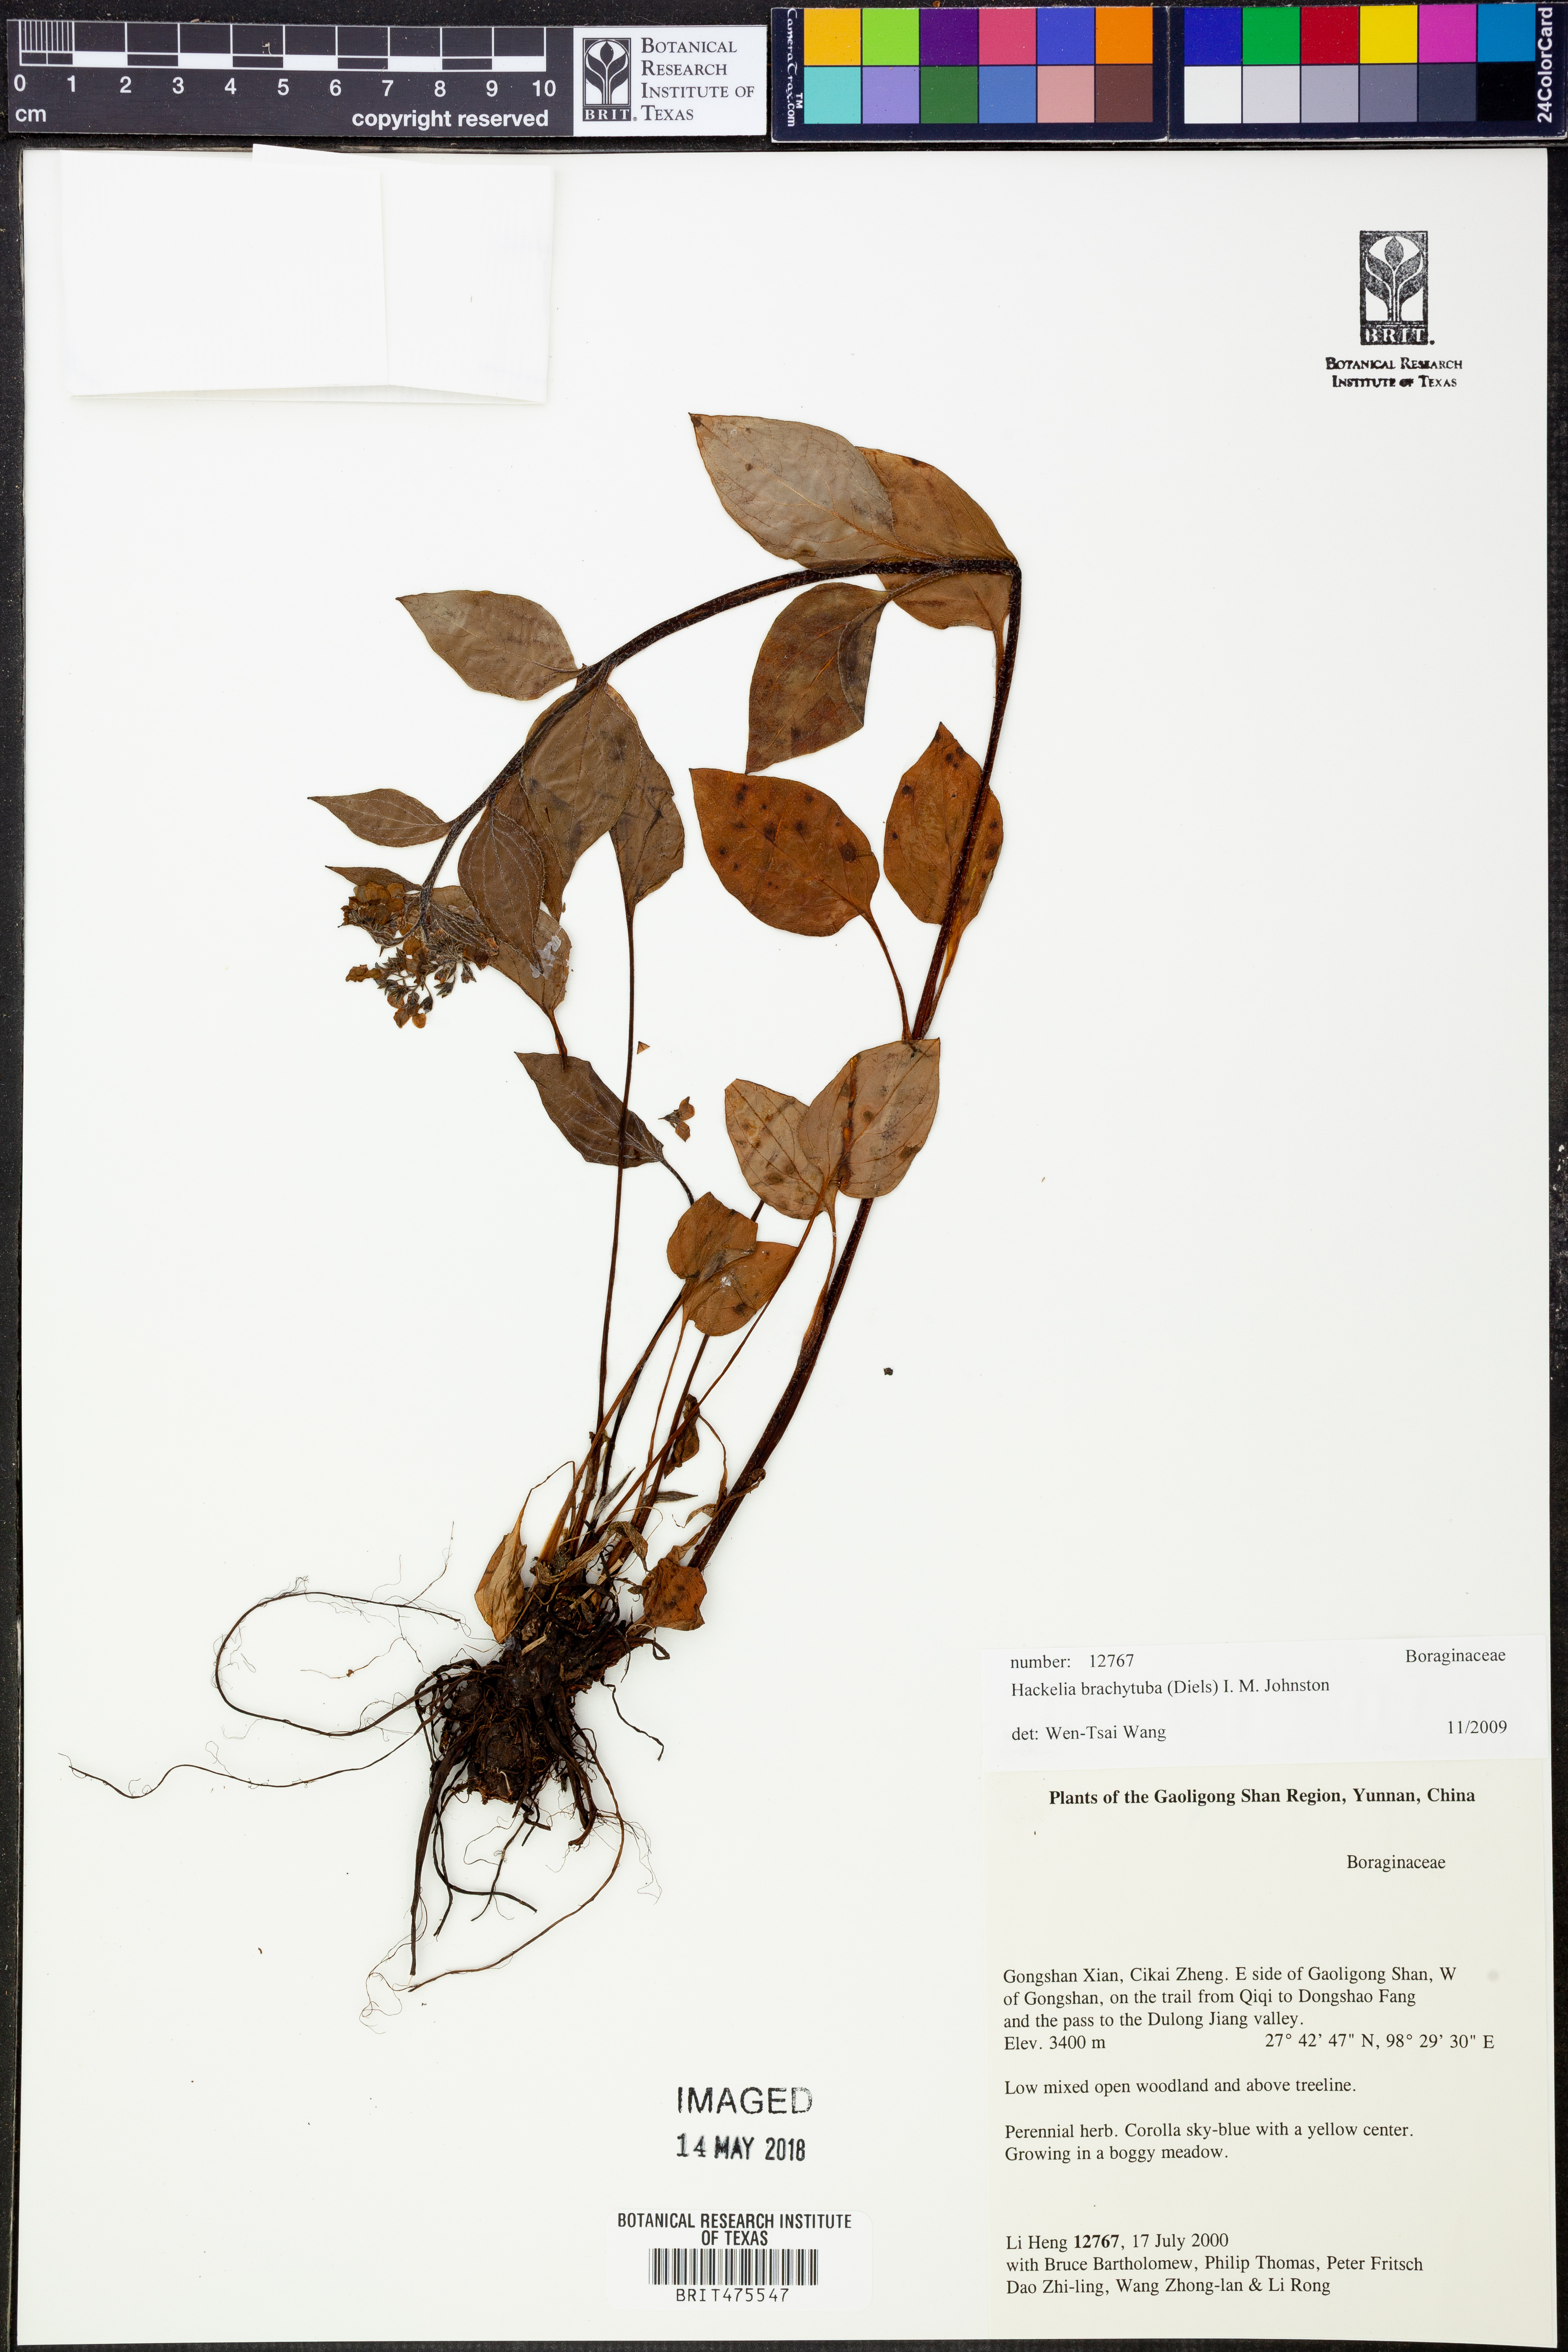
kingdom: Plantae
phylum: Tracheophyta
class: Magnoliopsida
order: Boraginales
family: Boraginaceae
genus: Hackelia
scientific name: Hackelia brachytuba
